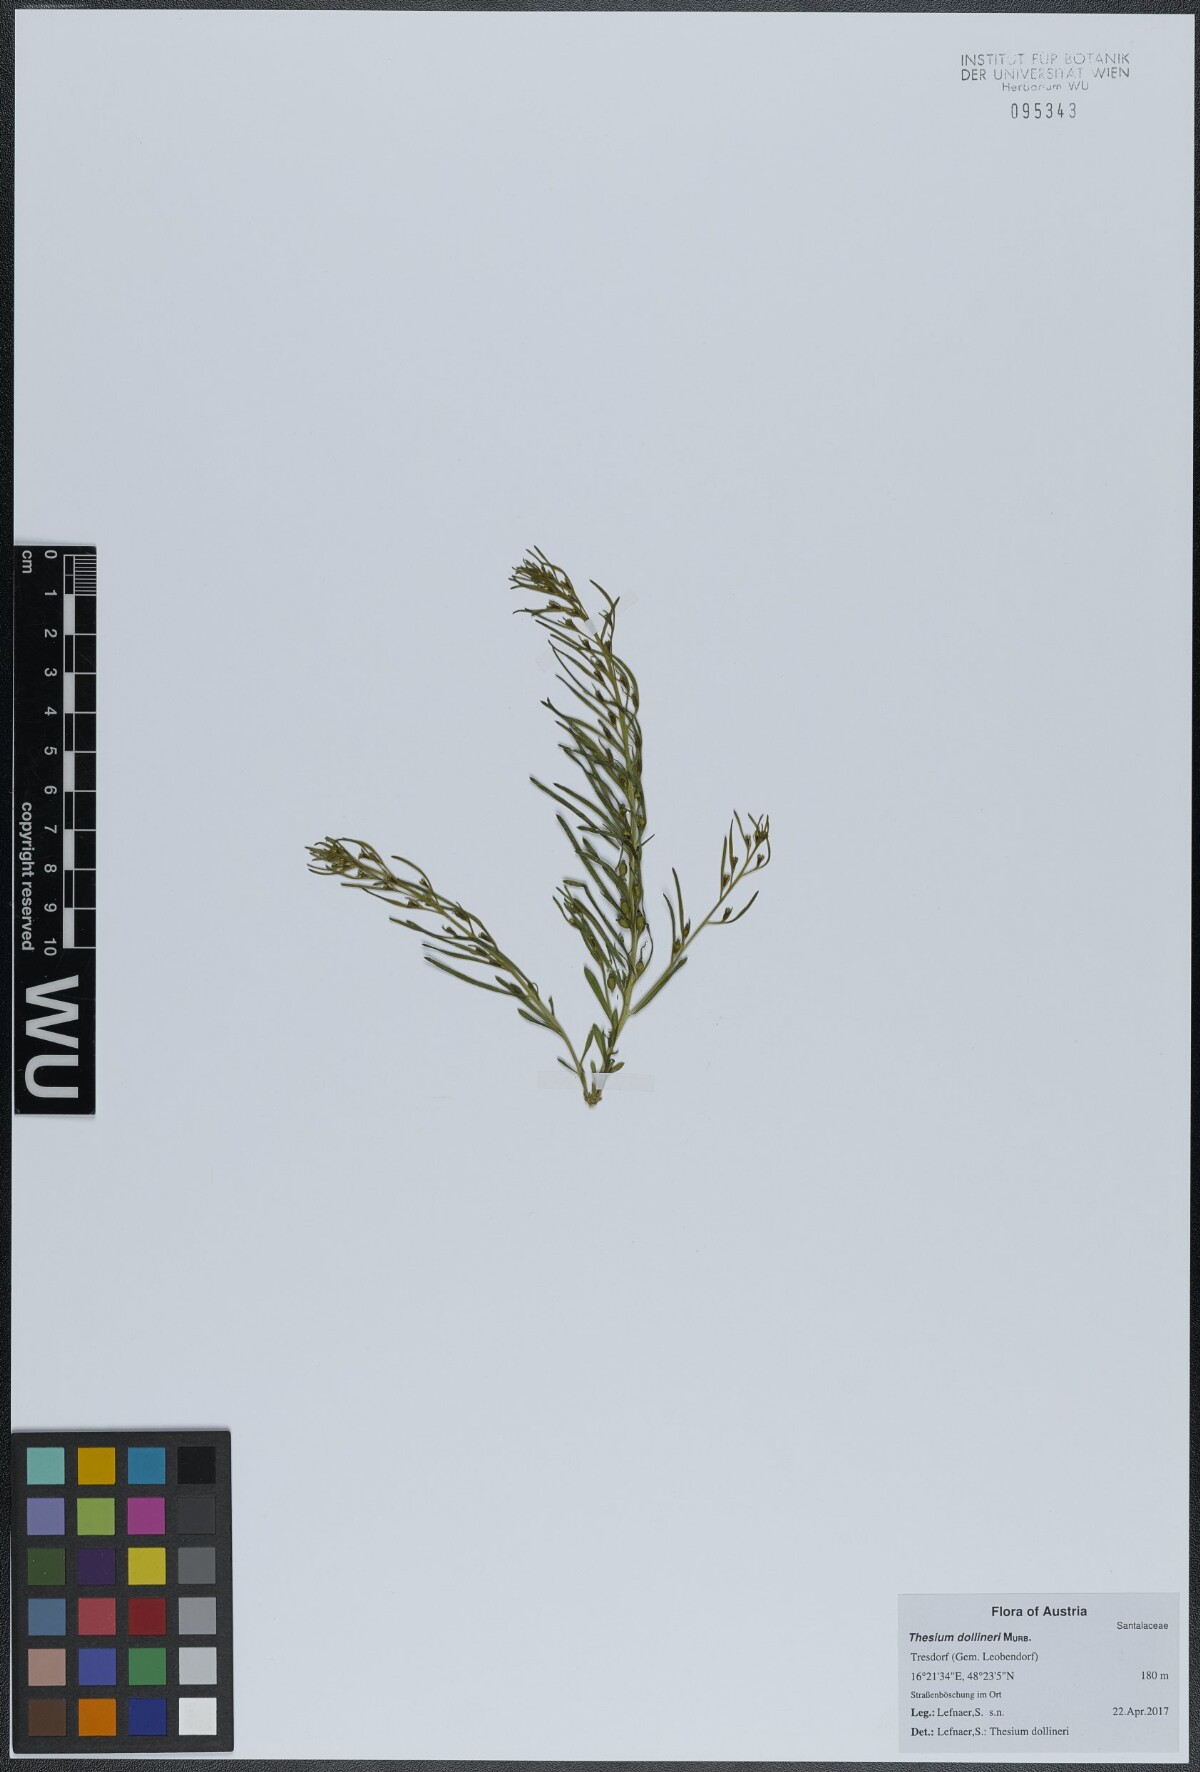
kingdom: Plantae
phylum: Tracheophyta
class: Magnoliopsida
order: Santalales
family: Thesiaceae
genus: Thesium
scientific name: Thesium dollineri
